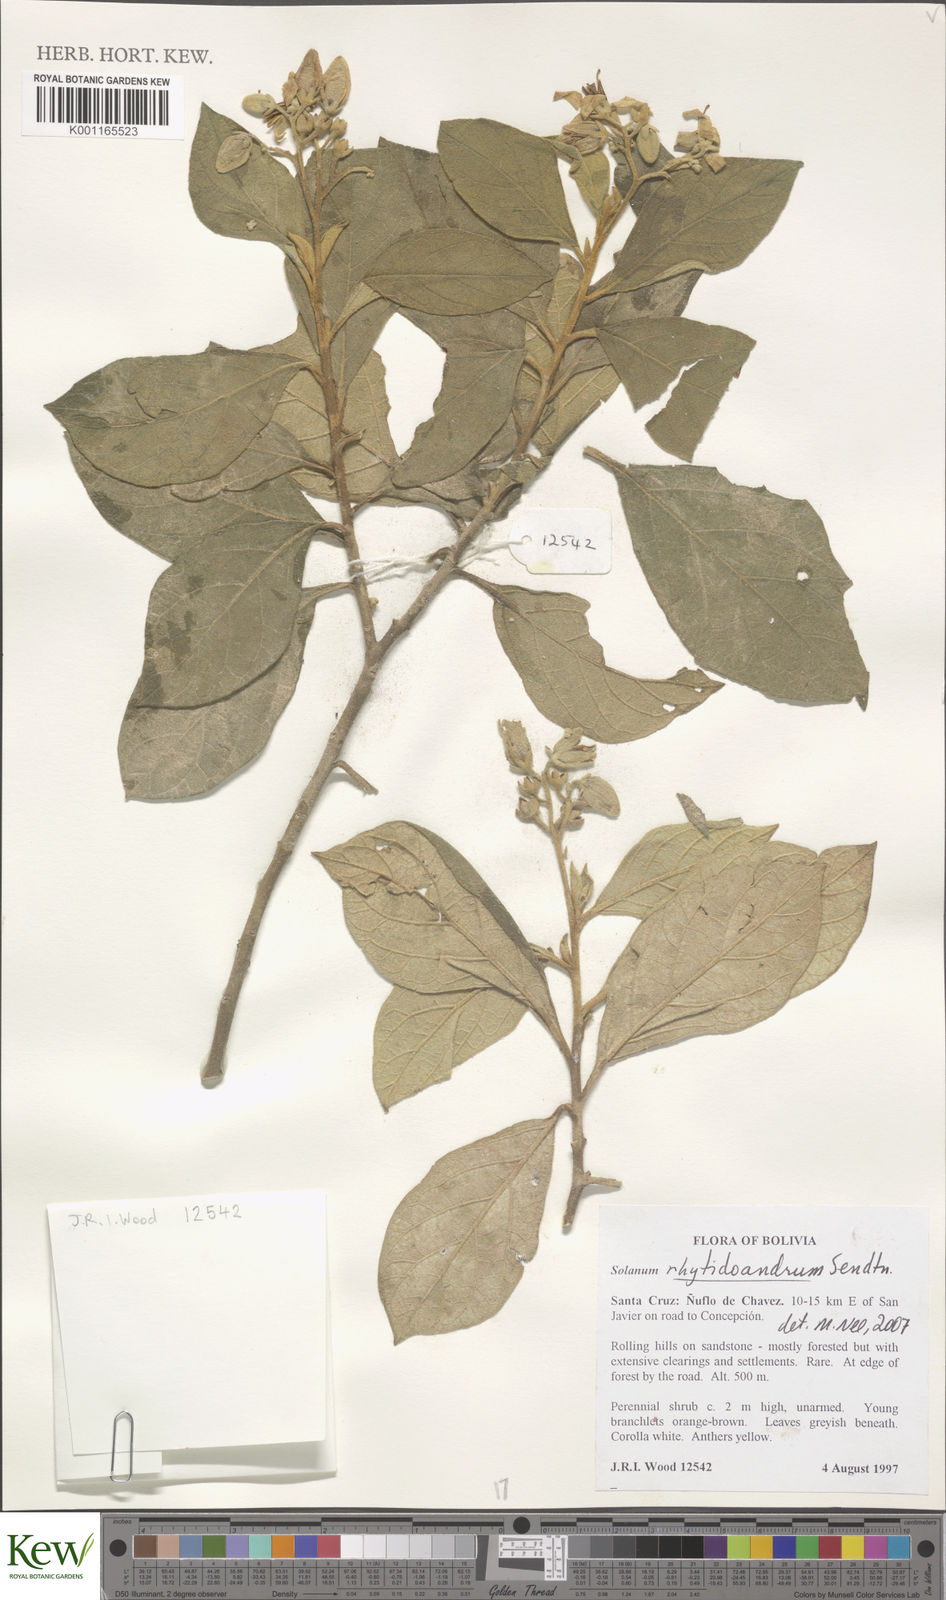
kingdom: Plantae
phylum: Tracheophyta
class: Magnoliopsida
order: Solanales
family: Solanaceae
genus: Solanum
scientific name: Solanum rhytidoandrum
